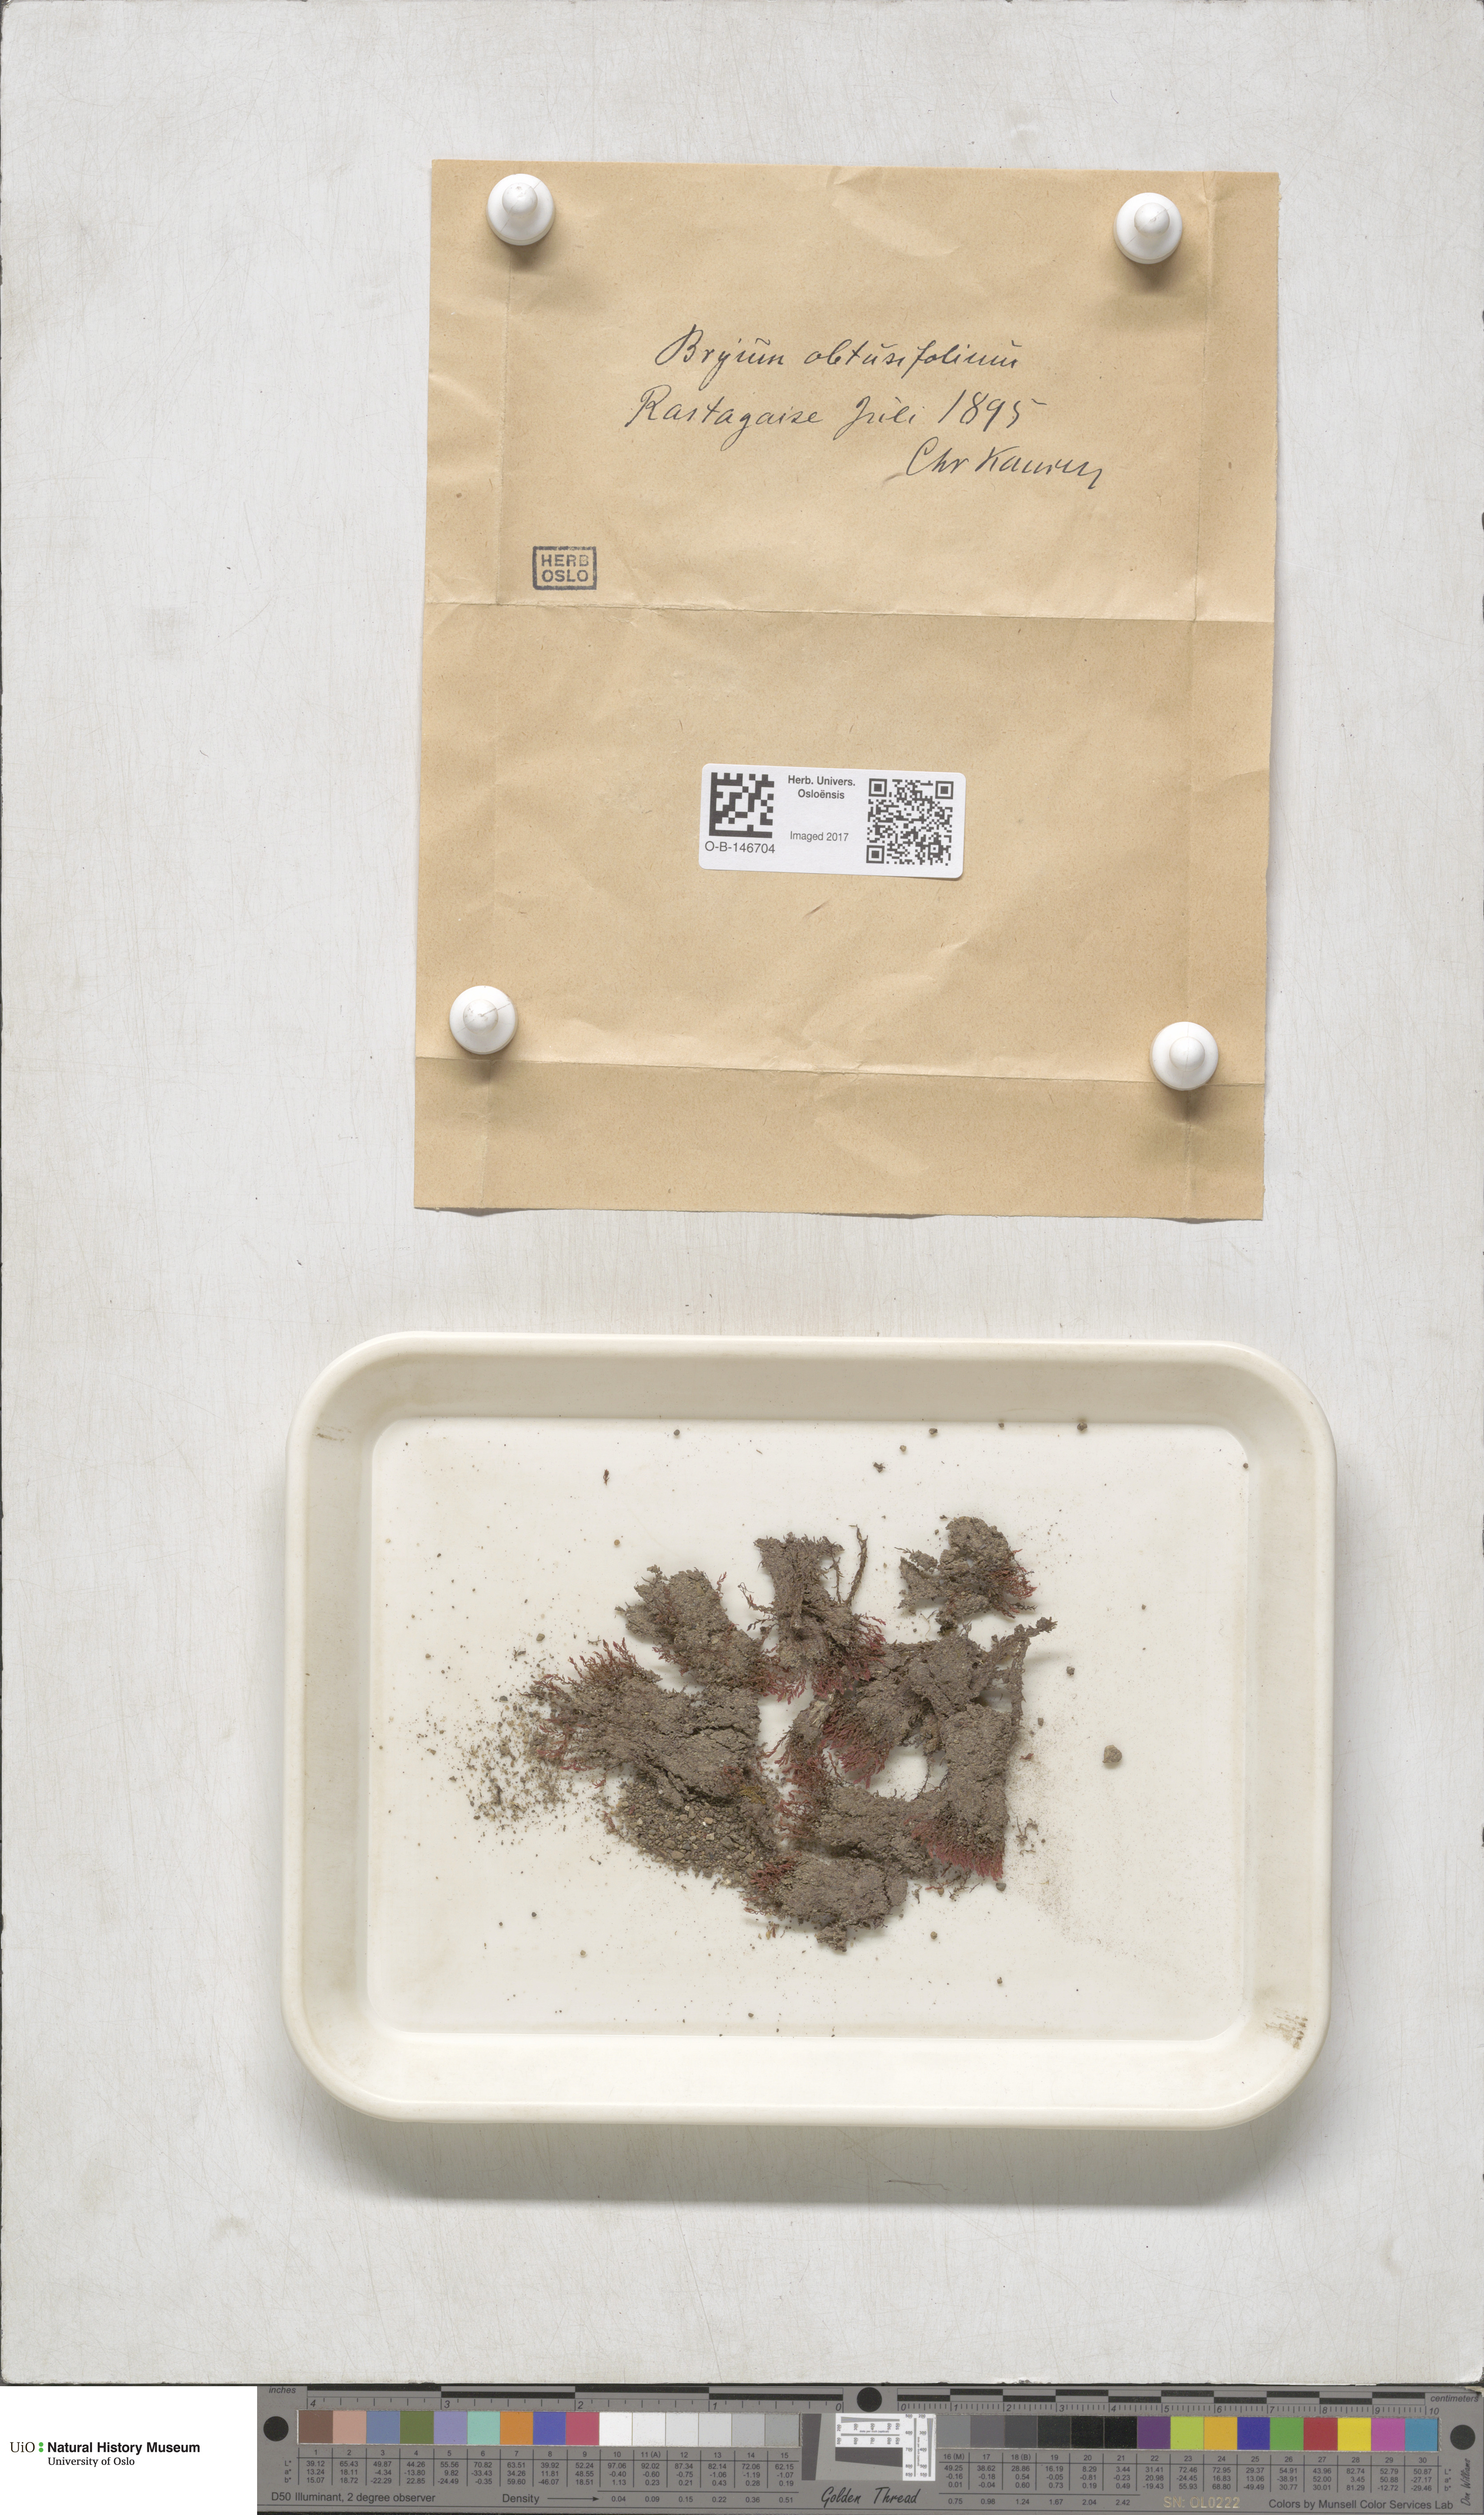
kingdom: Plantae
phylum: Bryophyta
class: Bryopsida
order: Bryales
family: Mniaceae
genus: Pohlia
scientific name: Pohlia obtusifolia
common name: Blunt nodding moss
